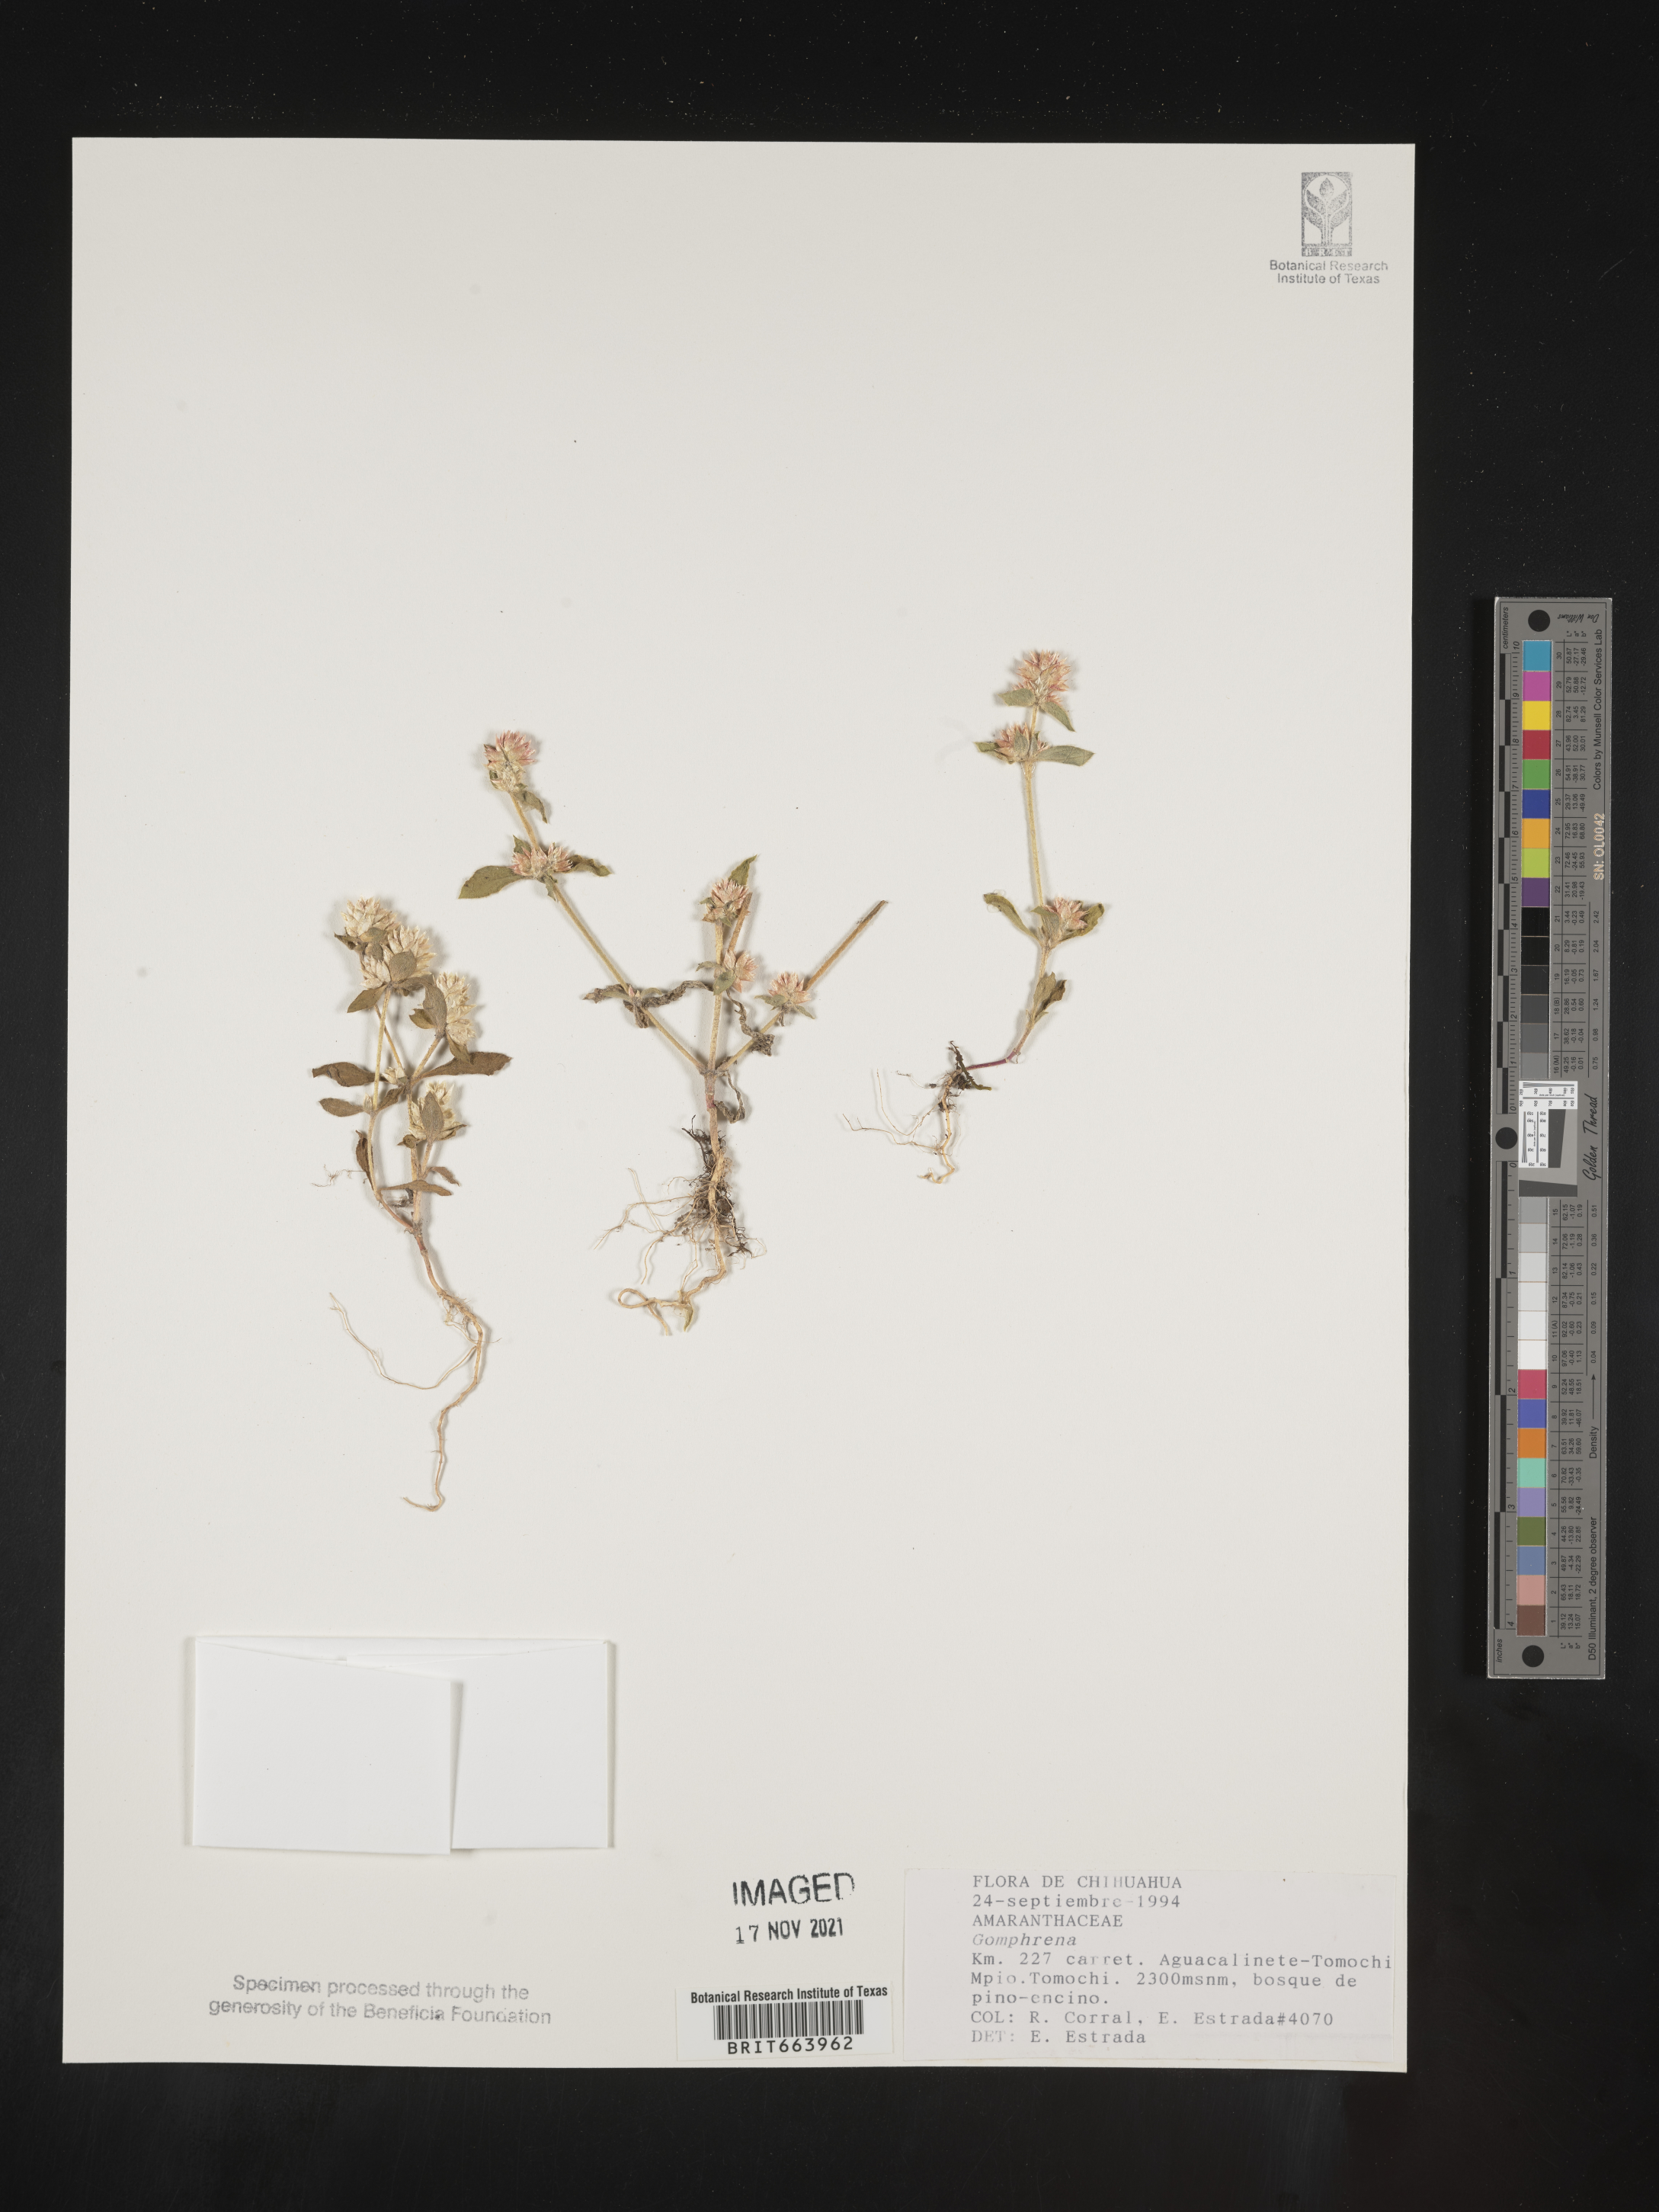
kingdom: Plantae
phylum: Tracheophyta
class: Magnoliopsida
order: Caryophyllales
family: Amaranthaceae
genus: Gomphrena
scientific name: Gomphrena
